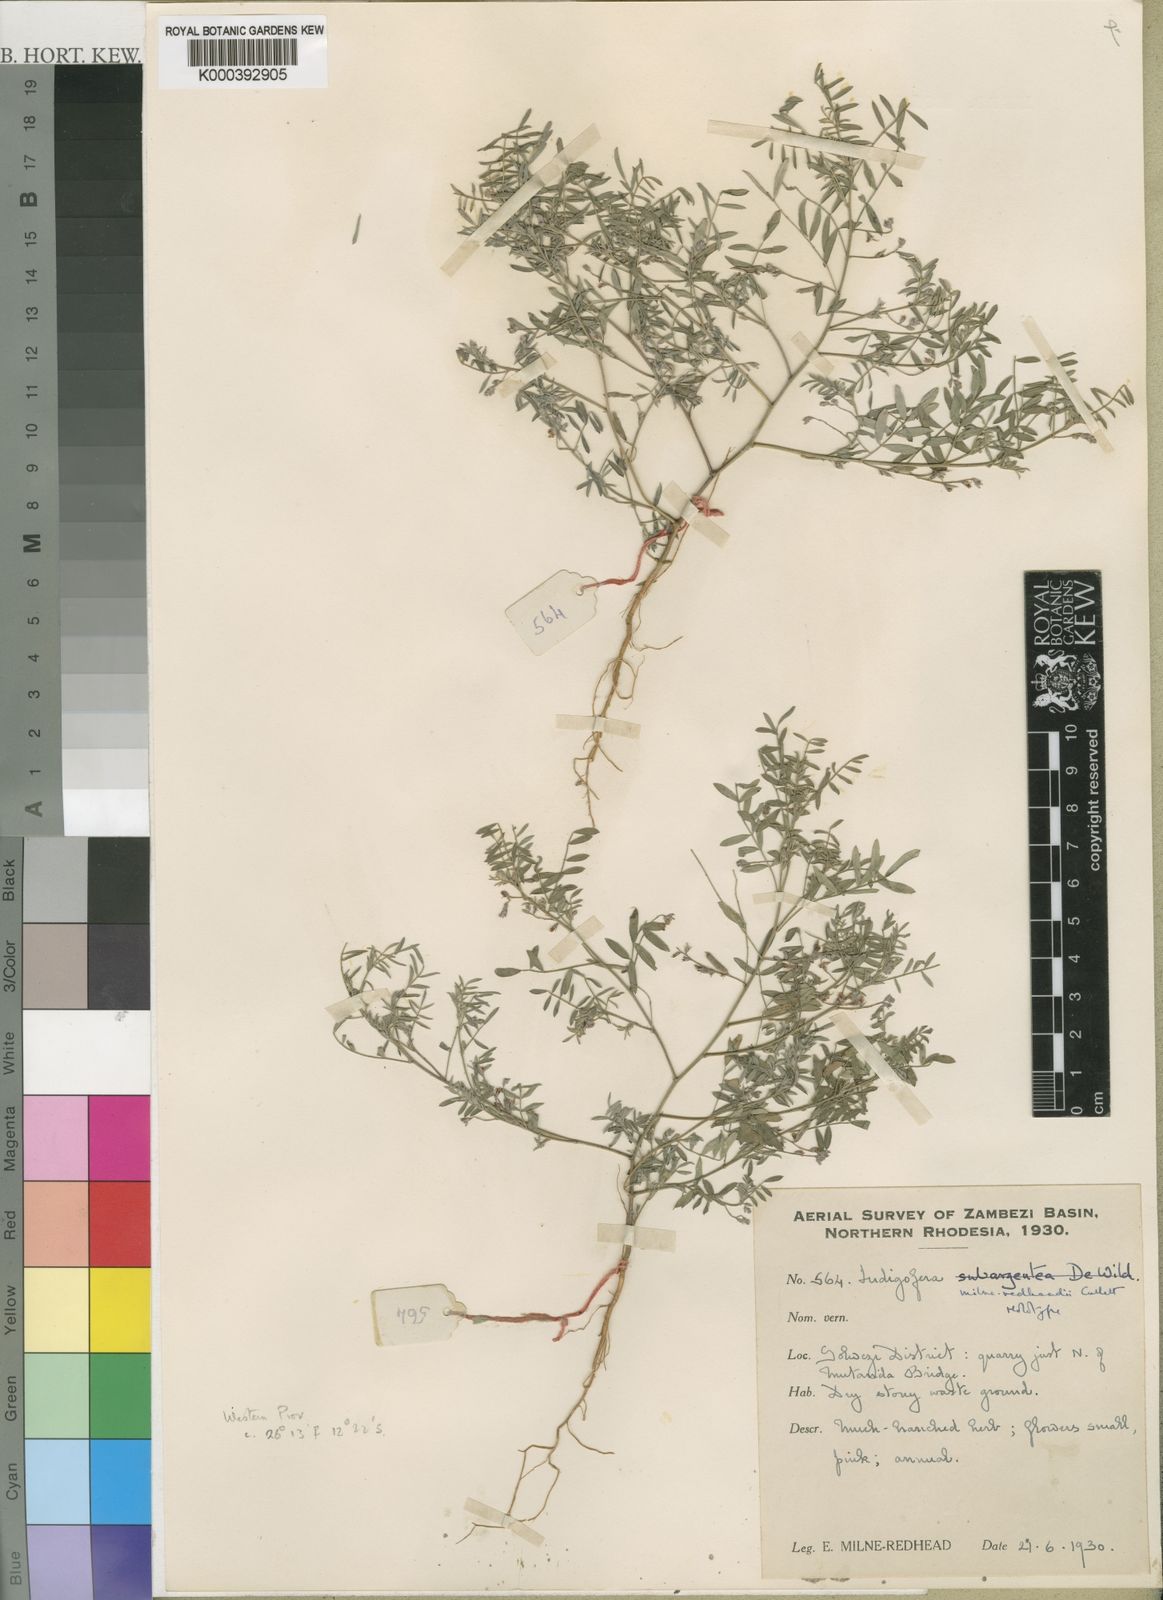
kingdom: Plantae
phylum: Tracheophyta
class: Magnoliopsida
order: Fabales
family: Fabaceae
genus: Indigofera
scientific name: Indigofera milne-redheadii
